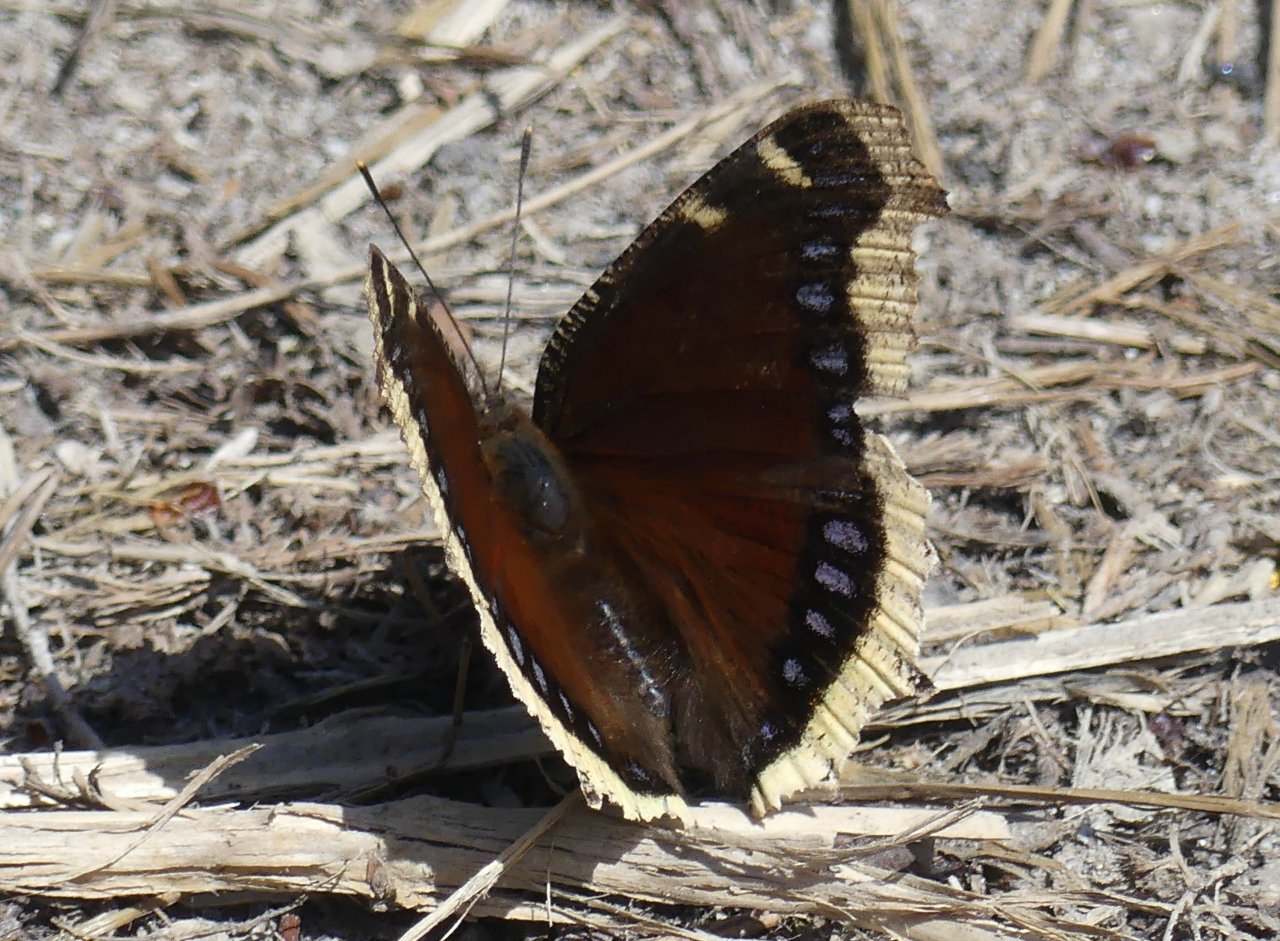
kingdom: Animalia
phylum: Arthropoda
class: Insecta
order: Lepidoptera
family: Nymphalidae
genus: Nymphalis
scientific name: Nymphalis antiopa
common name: Mourning Cloak
